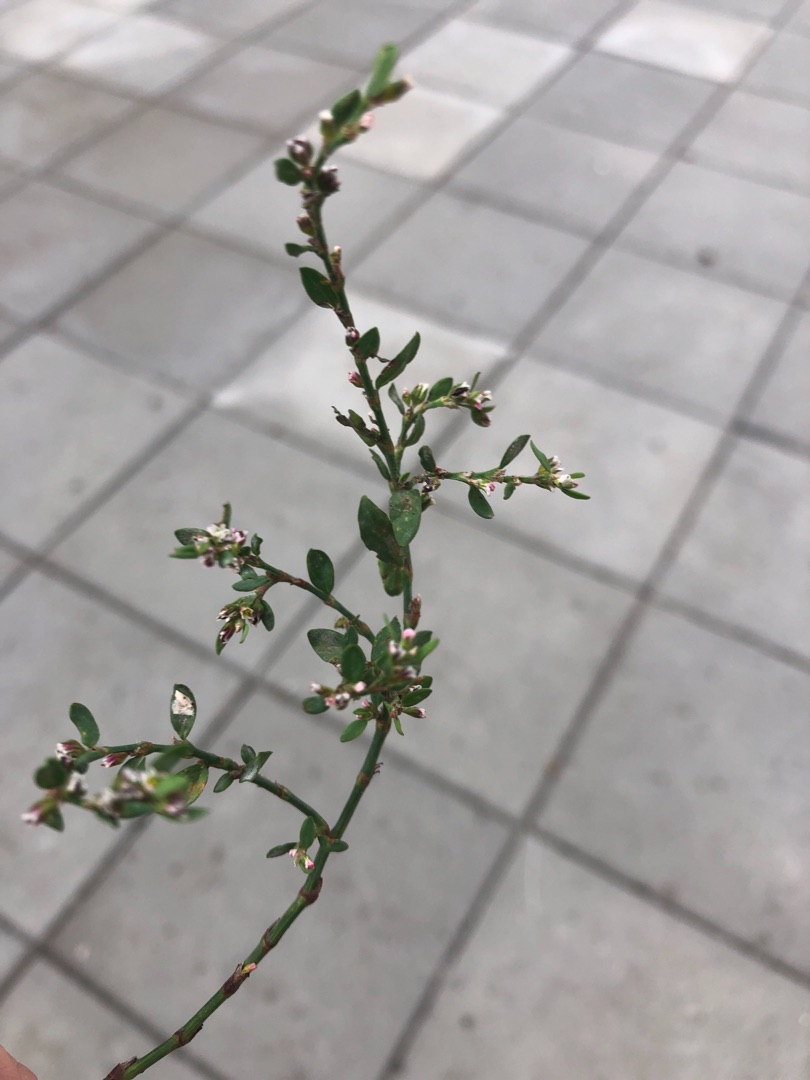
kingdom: Plantae
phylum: Tracheophyta
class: Magnoliopsida
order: Caryophyllales
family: Polygonaceae
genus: Polygonum
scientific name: Polygonum aviculare
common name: Vej-pileurt
